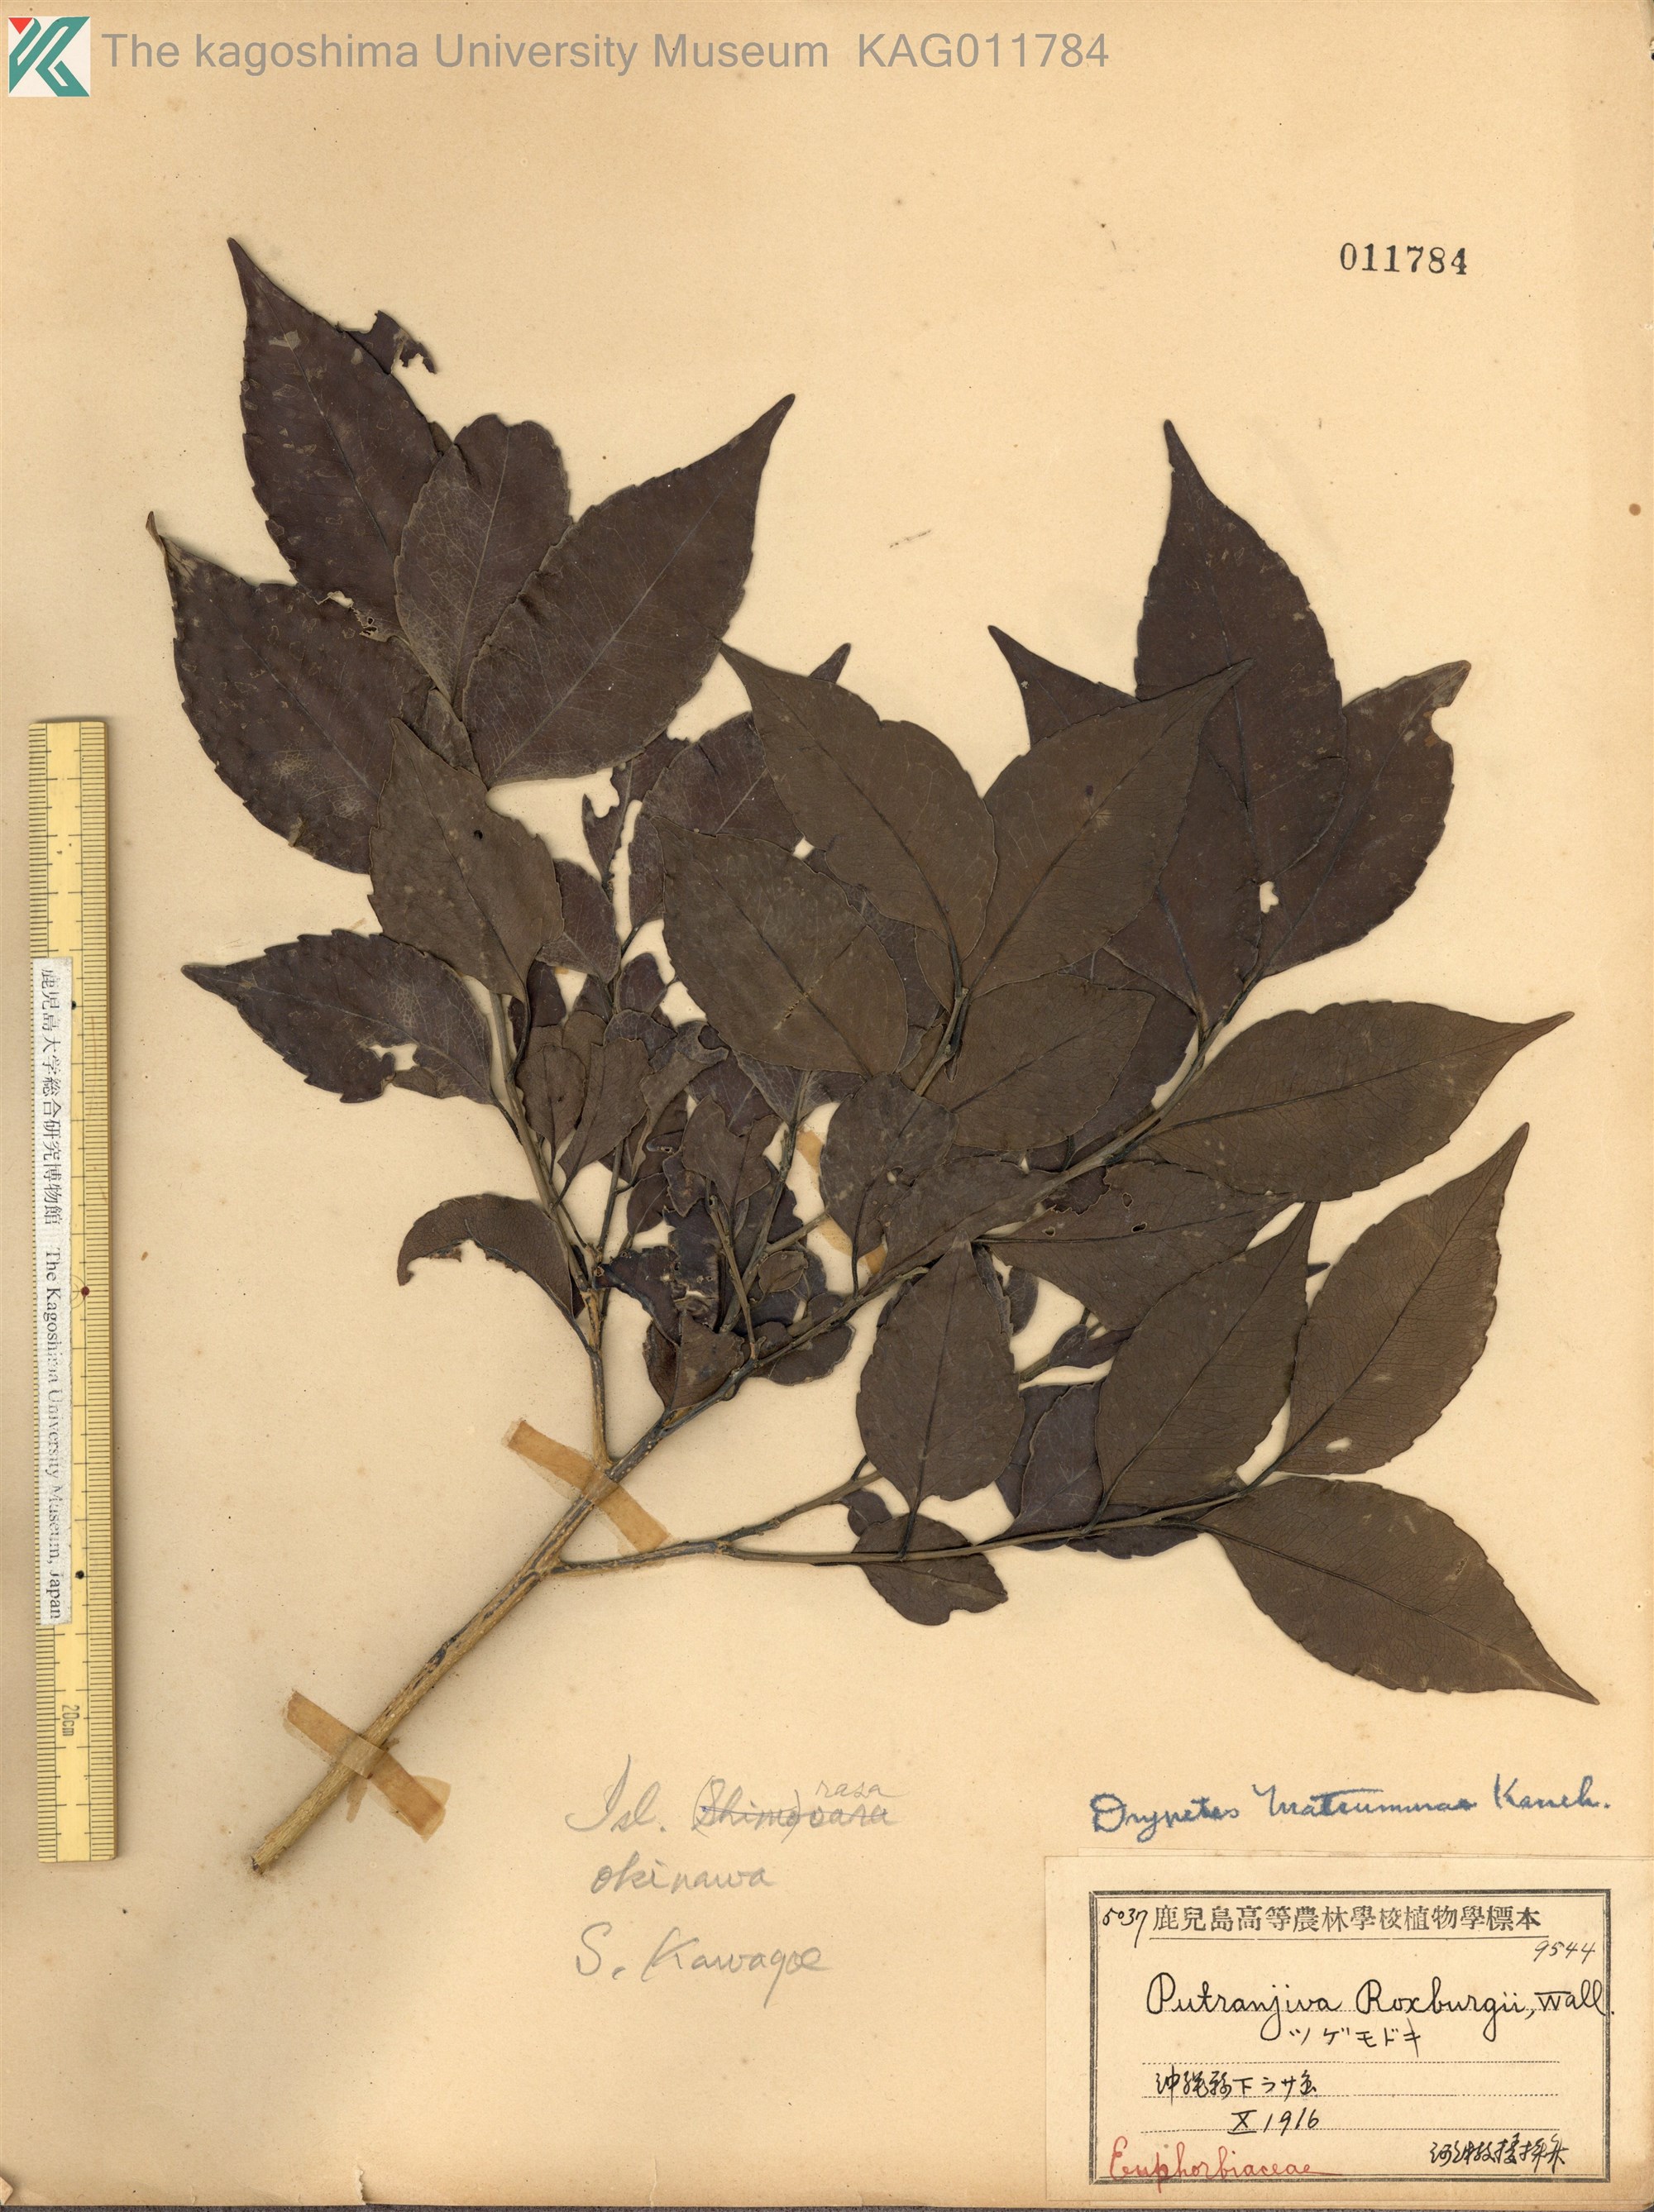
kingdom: Plantae
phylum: Tracheophyta
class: Magnoliopsida
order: Malpighiales
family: Putranjivaceae
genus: Putranjiva
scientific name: Putranjiva matsumurae
